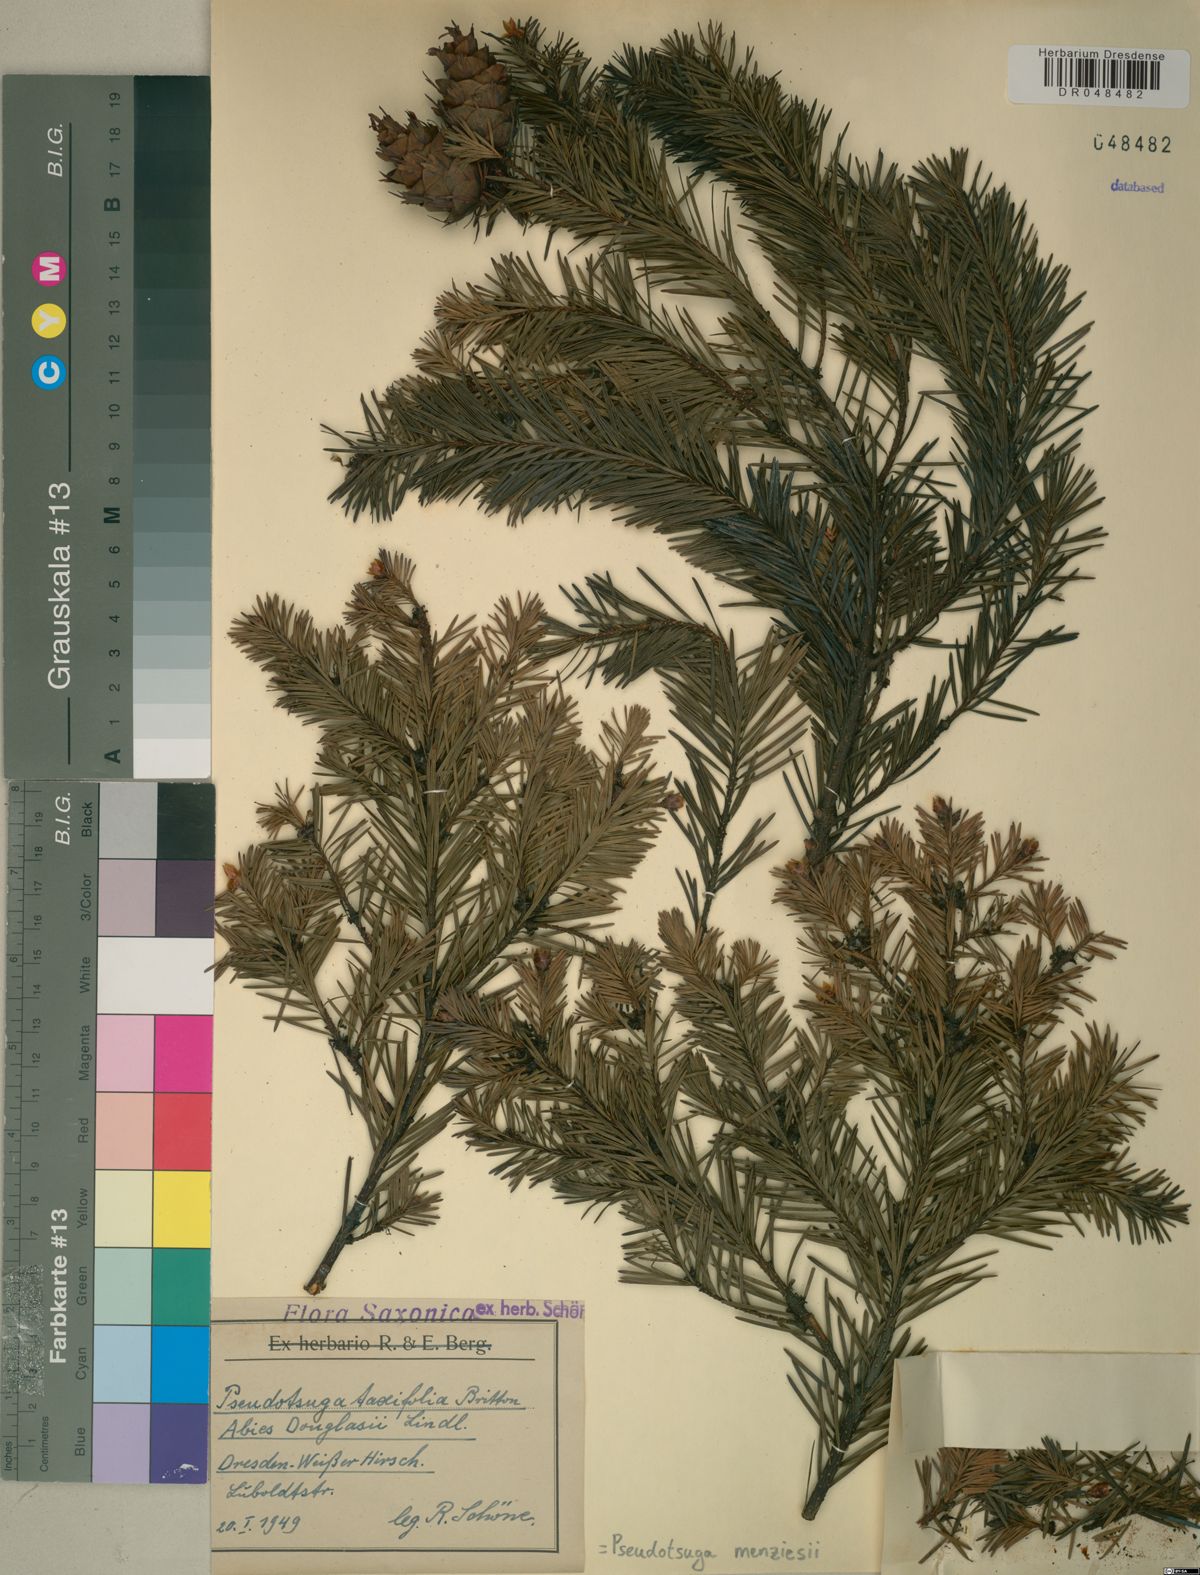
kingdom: Plantae
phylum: Tracheophyta
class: Pinopsida
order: Pinales
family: Pinaceae
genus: Pseudotsuga
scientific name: Pseudotsuga menziesii
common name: Douglas fir
